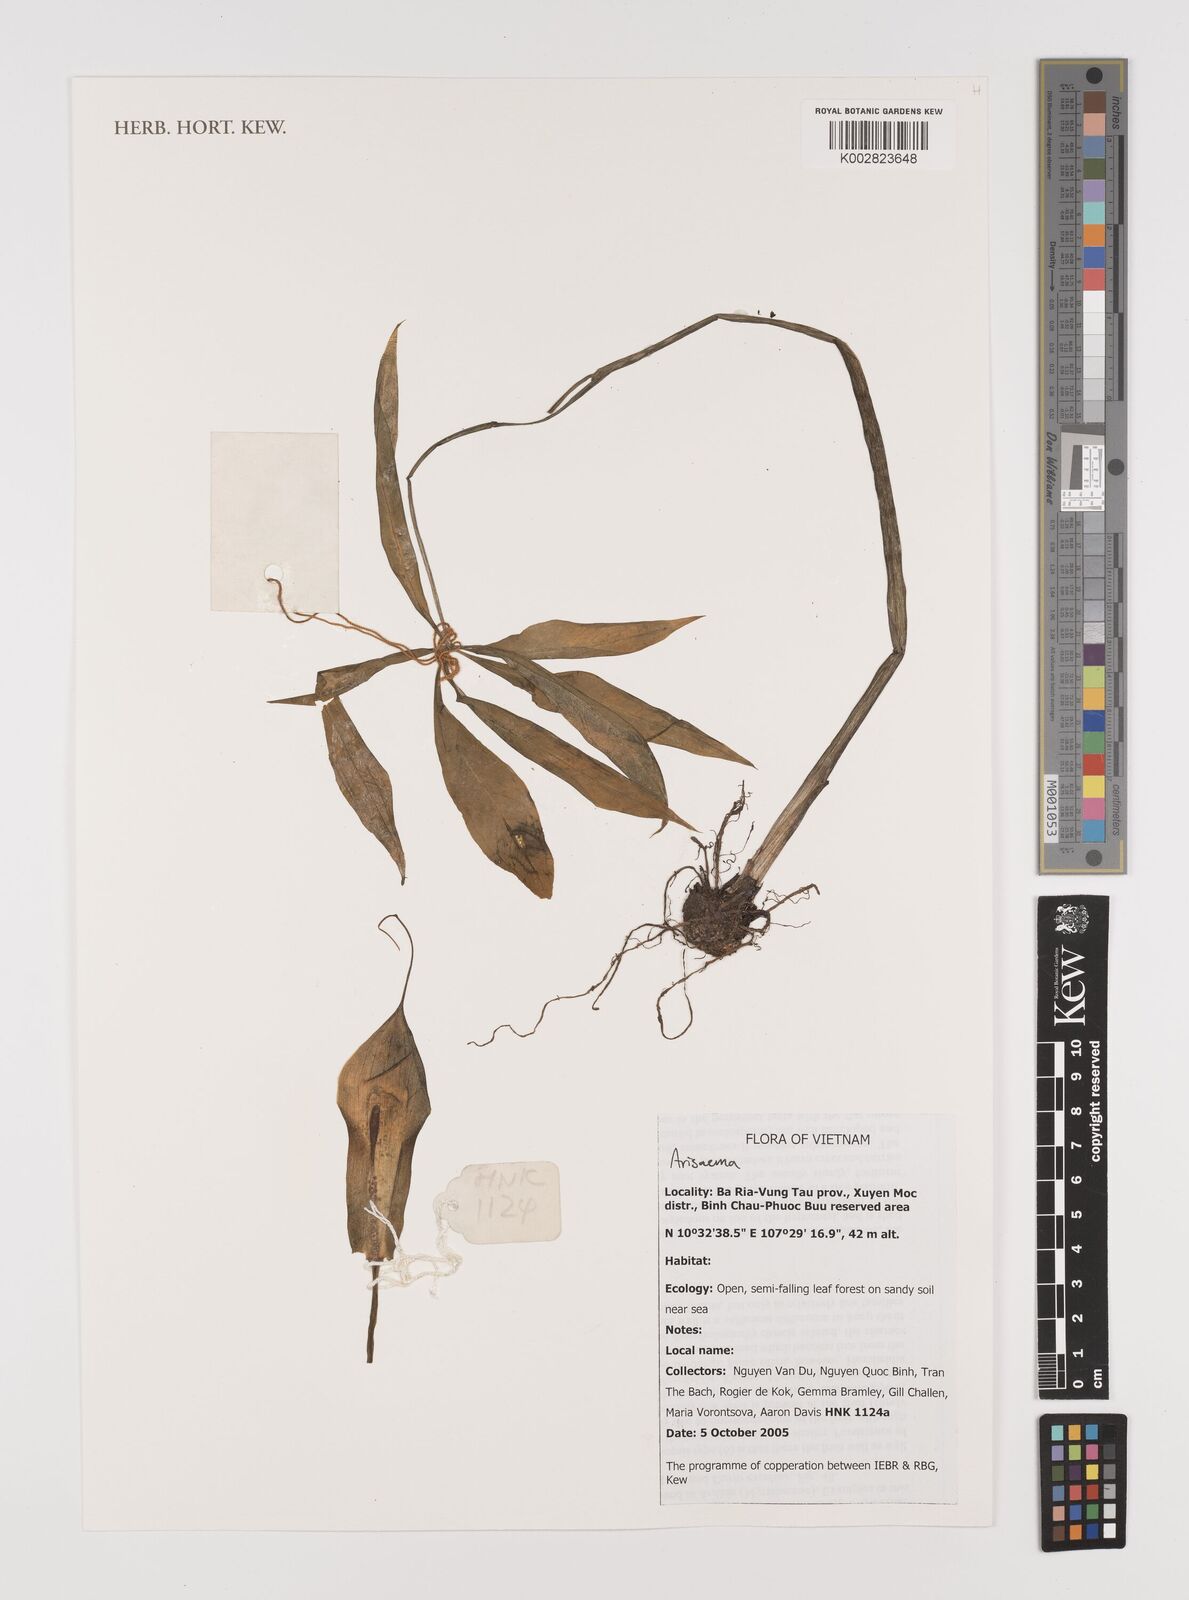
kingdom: Plantae
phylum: Tracheophyta
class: Liliopsida
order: Alismatales
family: Araceae
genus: Arisaema
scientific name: Arisaema
